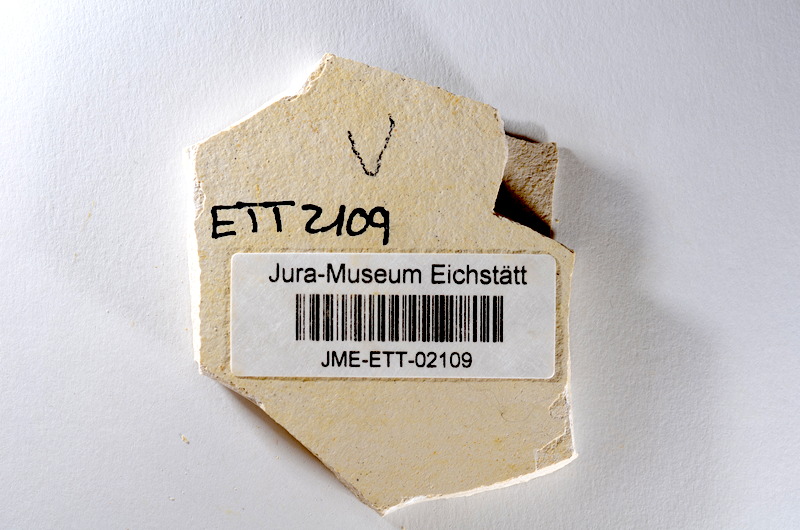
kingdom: Animalia
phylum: Chordata
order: Salmoniformes
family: Orthogonikleithridae
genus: Orthogonikleithrus
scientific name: Orthogonikleithrus hoelli
